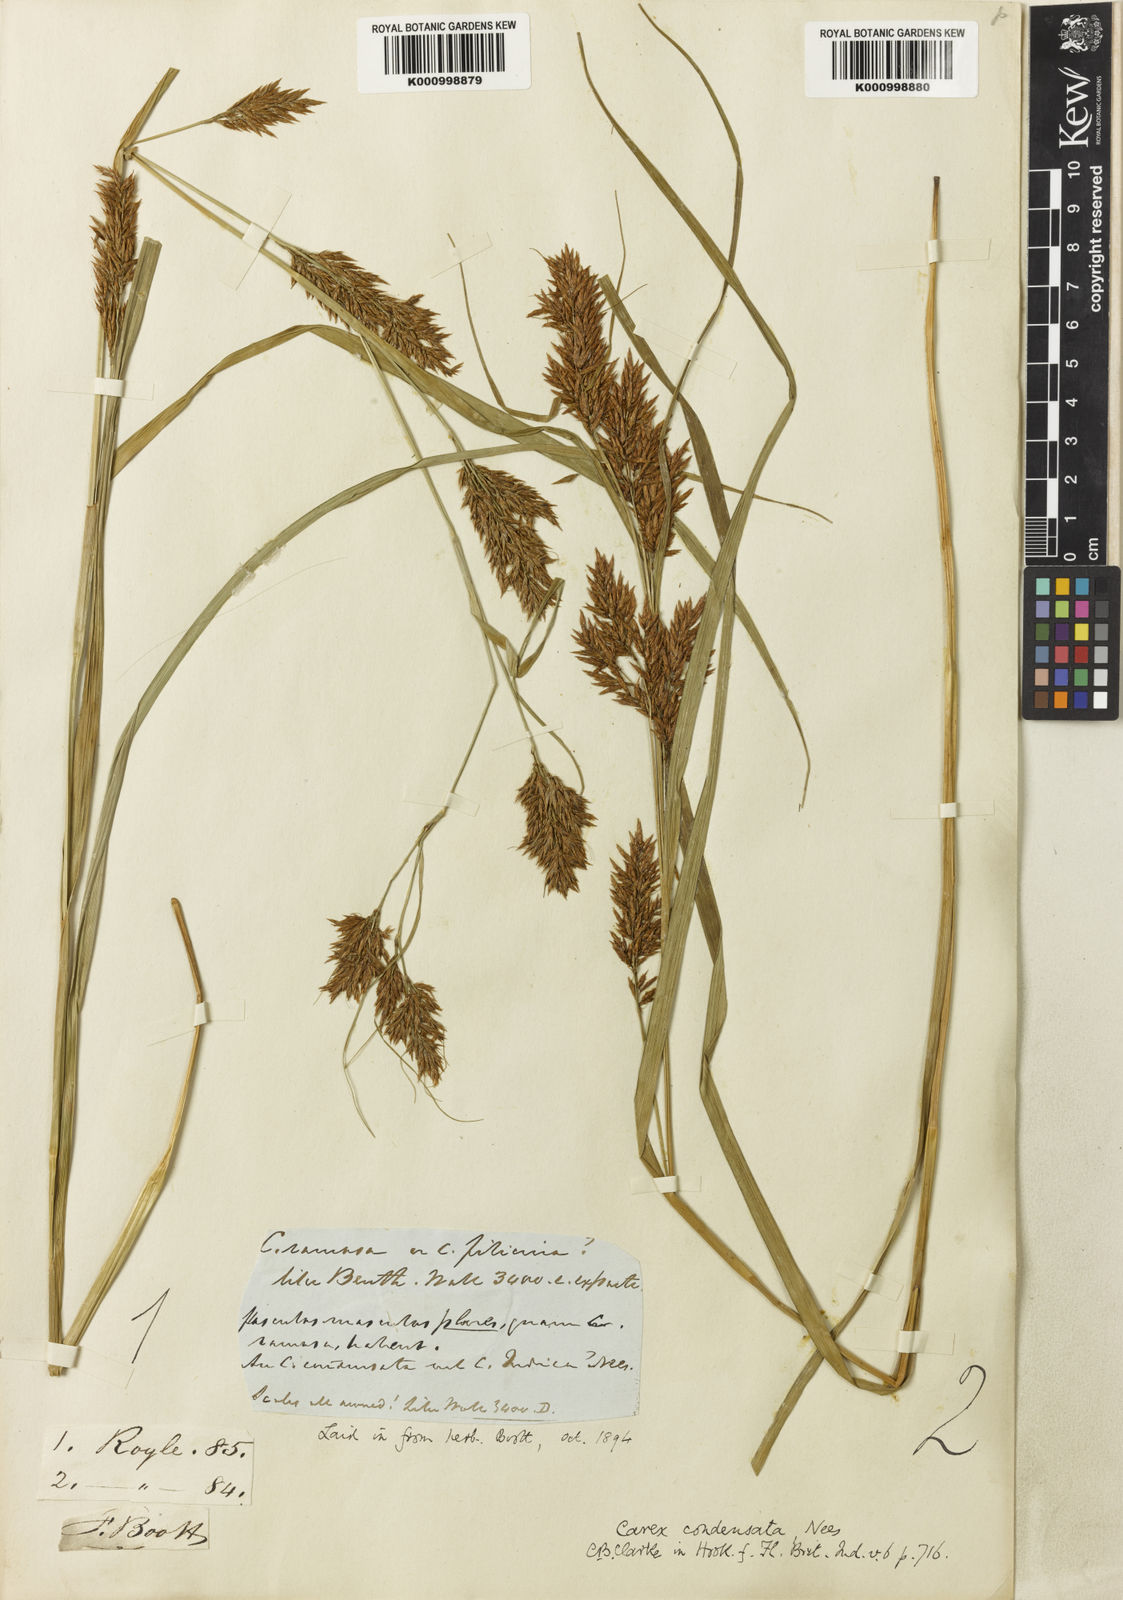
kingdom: Plantae
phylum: Tracheophyta
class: Liliopsida
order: Poales
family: Cyperaceae
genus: Carex
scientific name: Carex condensata
